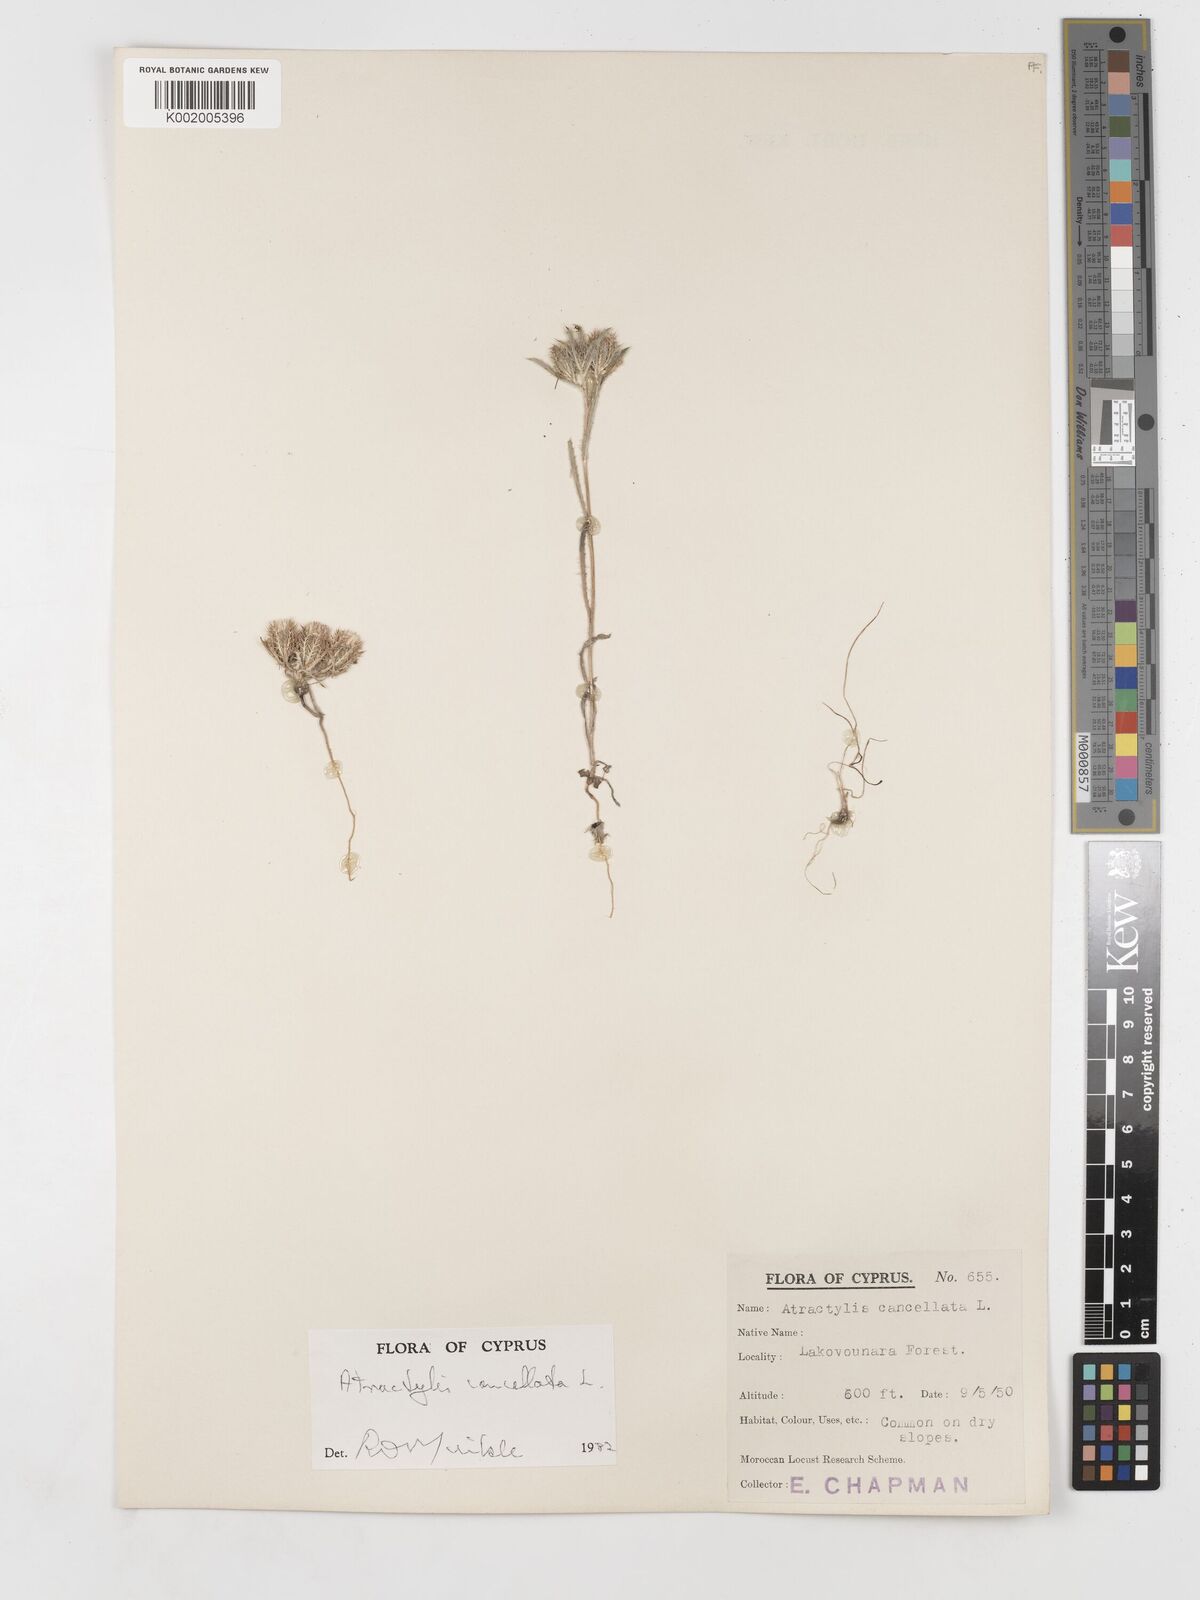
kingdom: Plantae
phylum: Tracheophyta
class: Magnoliopsida
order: Asterales
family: Asteraceae
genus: Atractylis
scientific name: Atractylis cancellata
